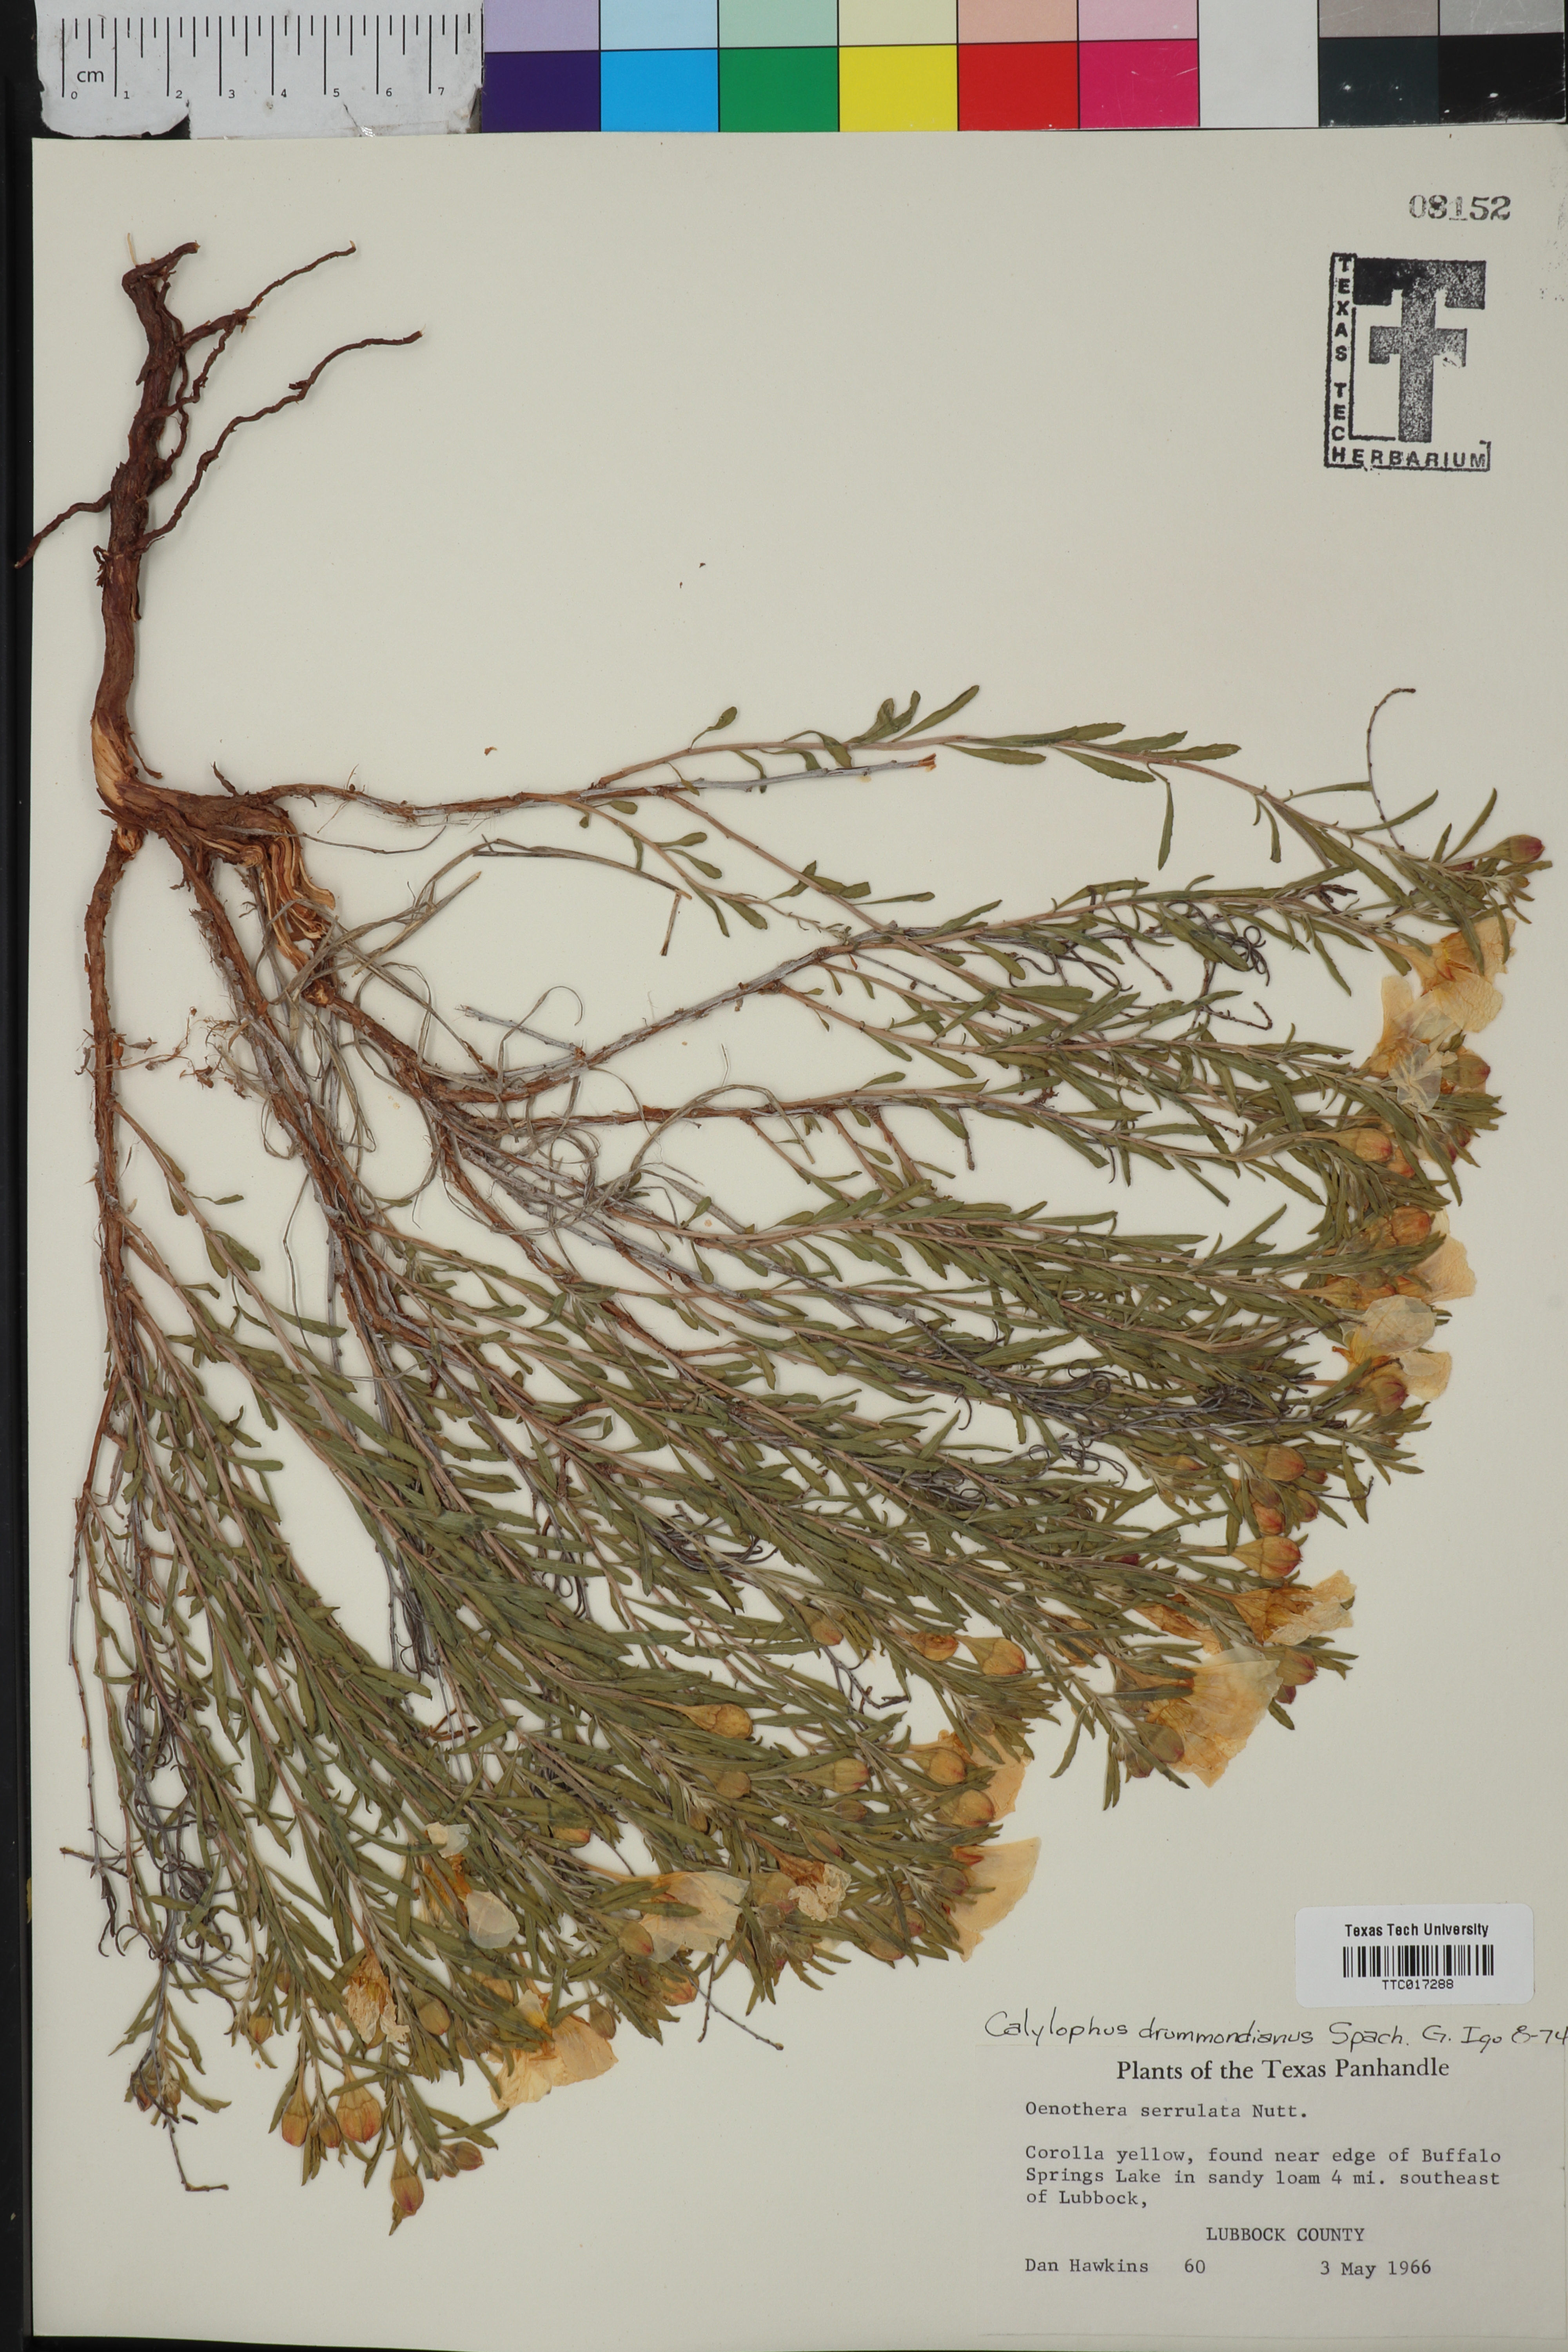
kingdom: Plantae
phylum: Tracheophyta
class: Magnoliopsida
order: Myrtales
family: Onagraceae
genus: Oenothera
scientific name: Oenothera serrulata
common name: Half-shrub calylophus
